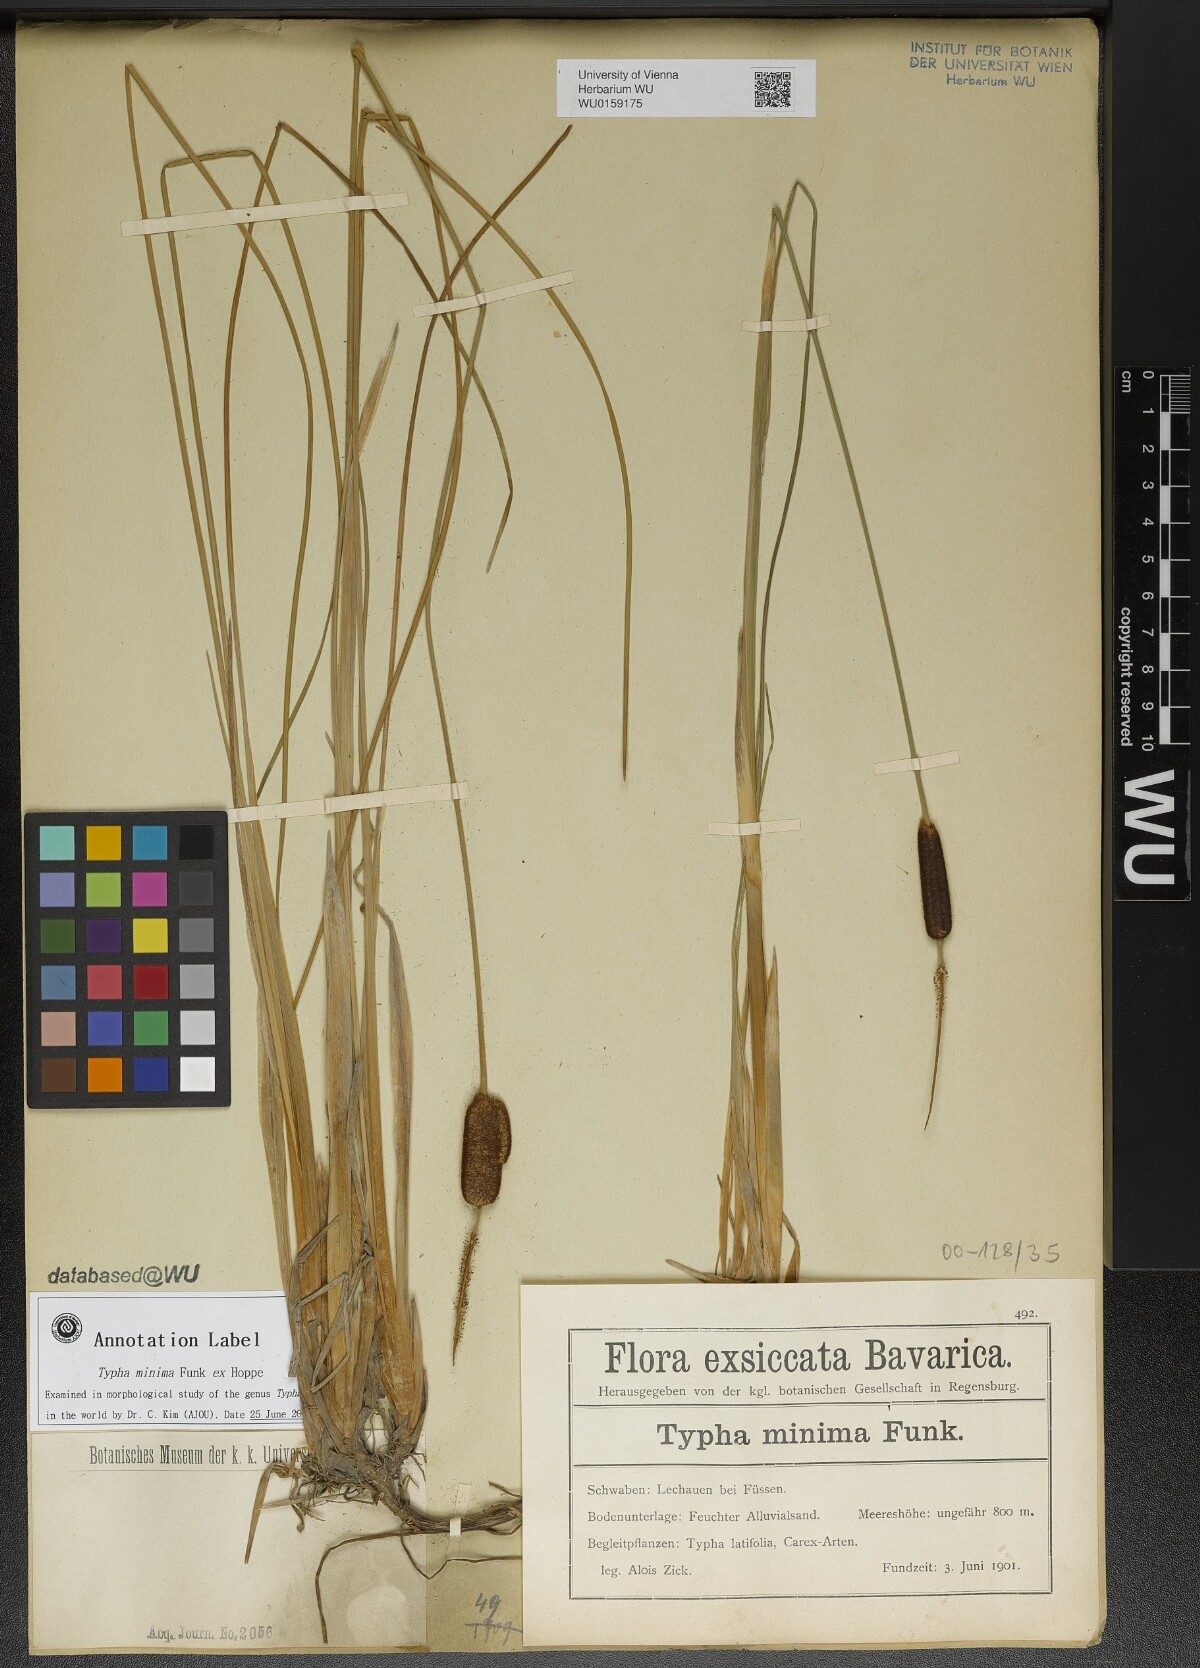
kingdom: Plantae
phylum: Tracheophyta
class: Liliopsida
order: Poales
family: Typhaceae
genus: Typha
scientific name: Typha minima
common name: Dwarf bulrush
